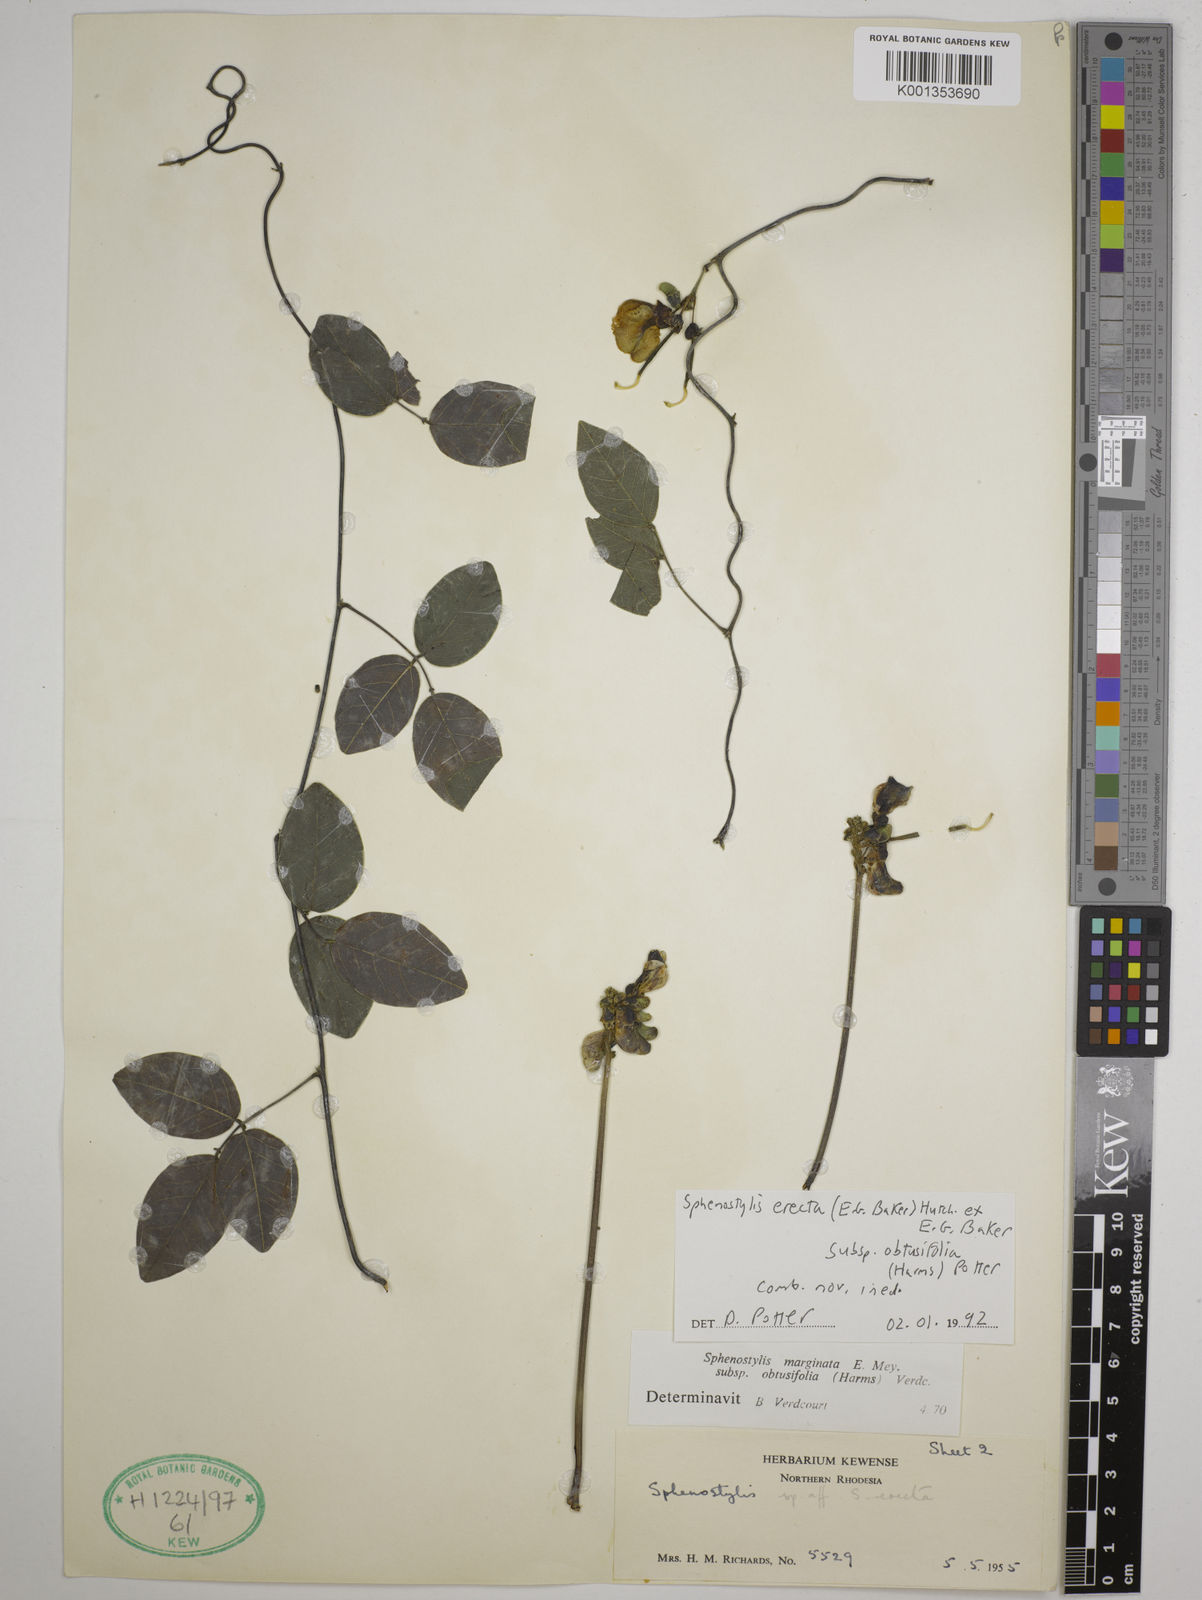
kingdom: Plantae
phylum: Tracheophyta
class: Magnoliopsida
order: Fabales
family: Fabaceae
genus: Sphenostylis
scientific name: Sphenostylis erecta
